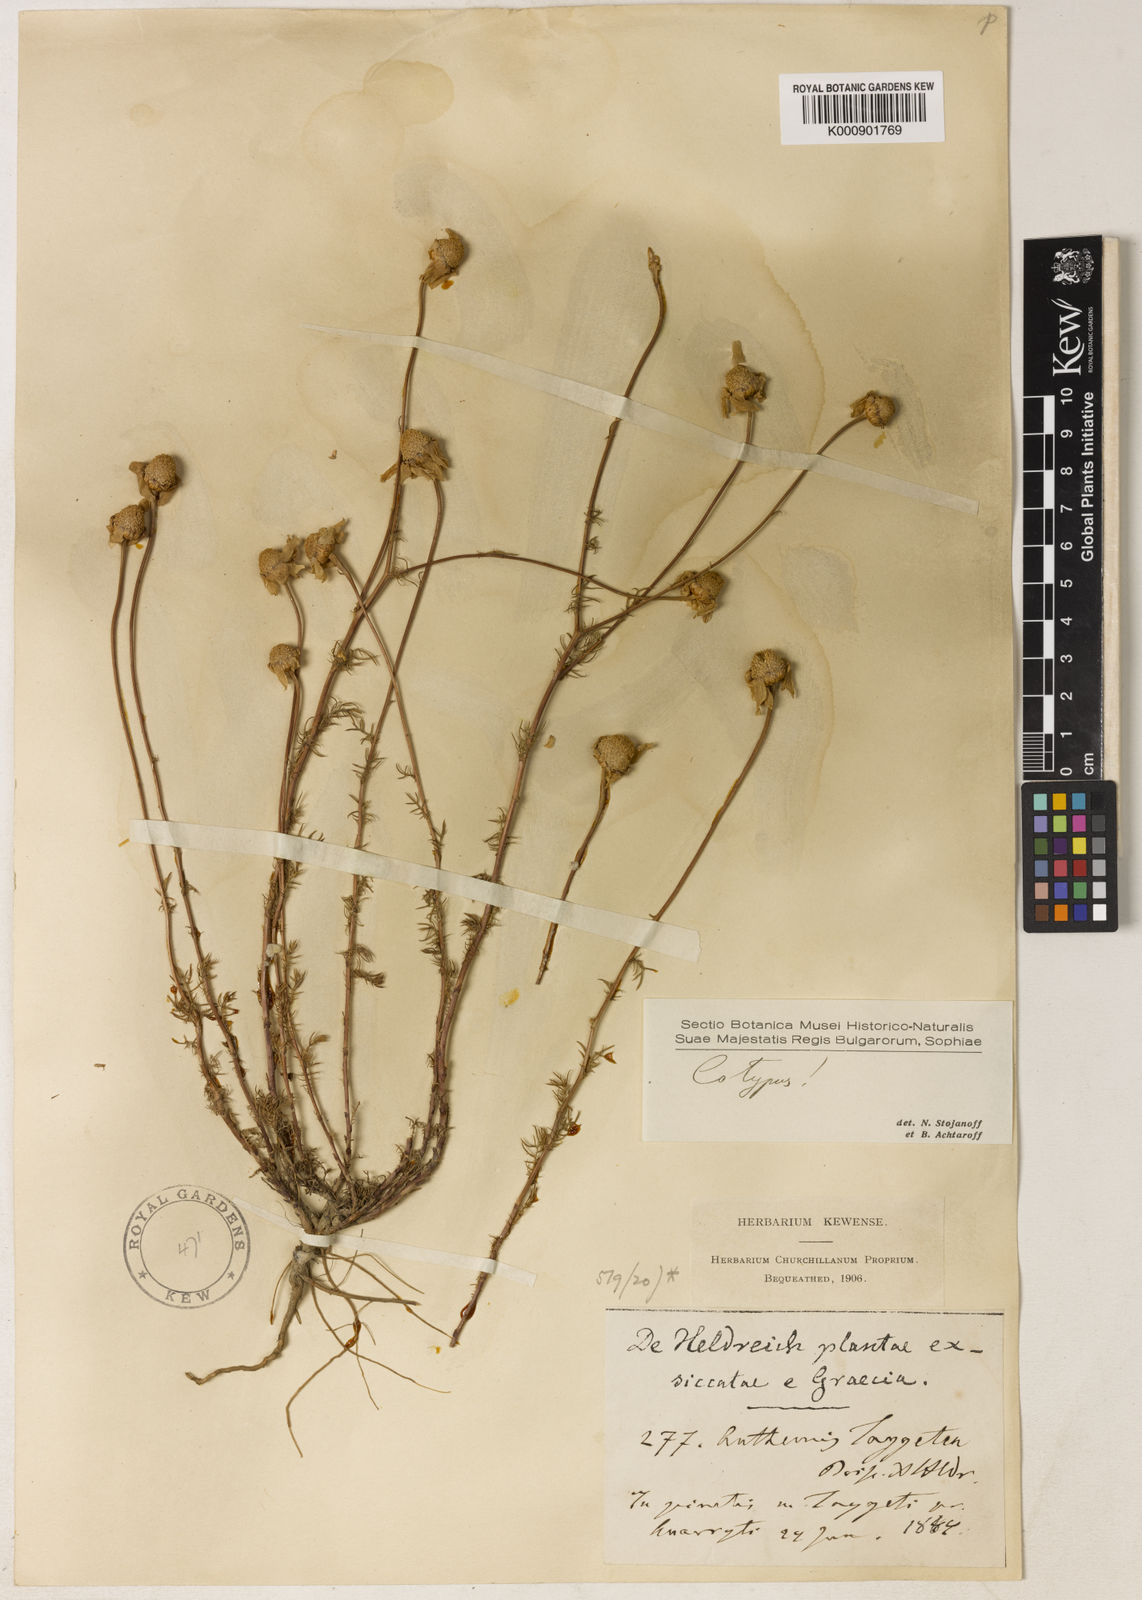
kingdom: Plantae
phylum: Tracheophyta
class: Magnoliopsida
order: Asterales
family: Asteraceae
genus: Anthemis
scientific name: Anthemis orientalis
